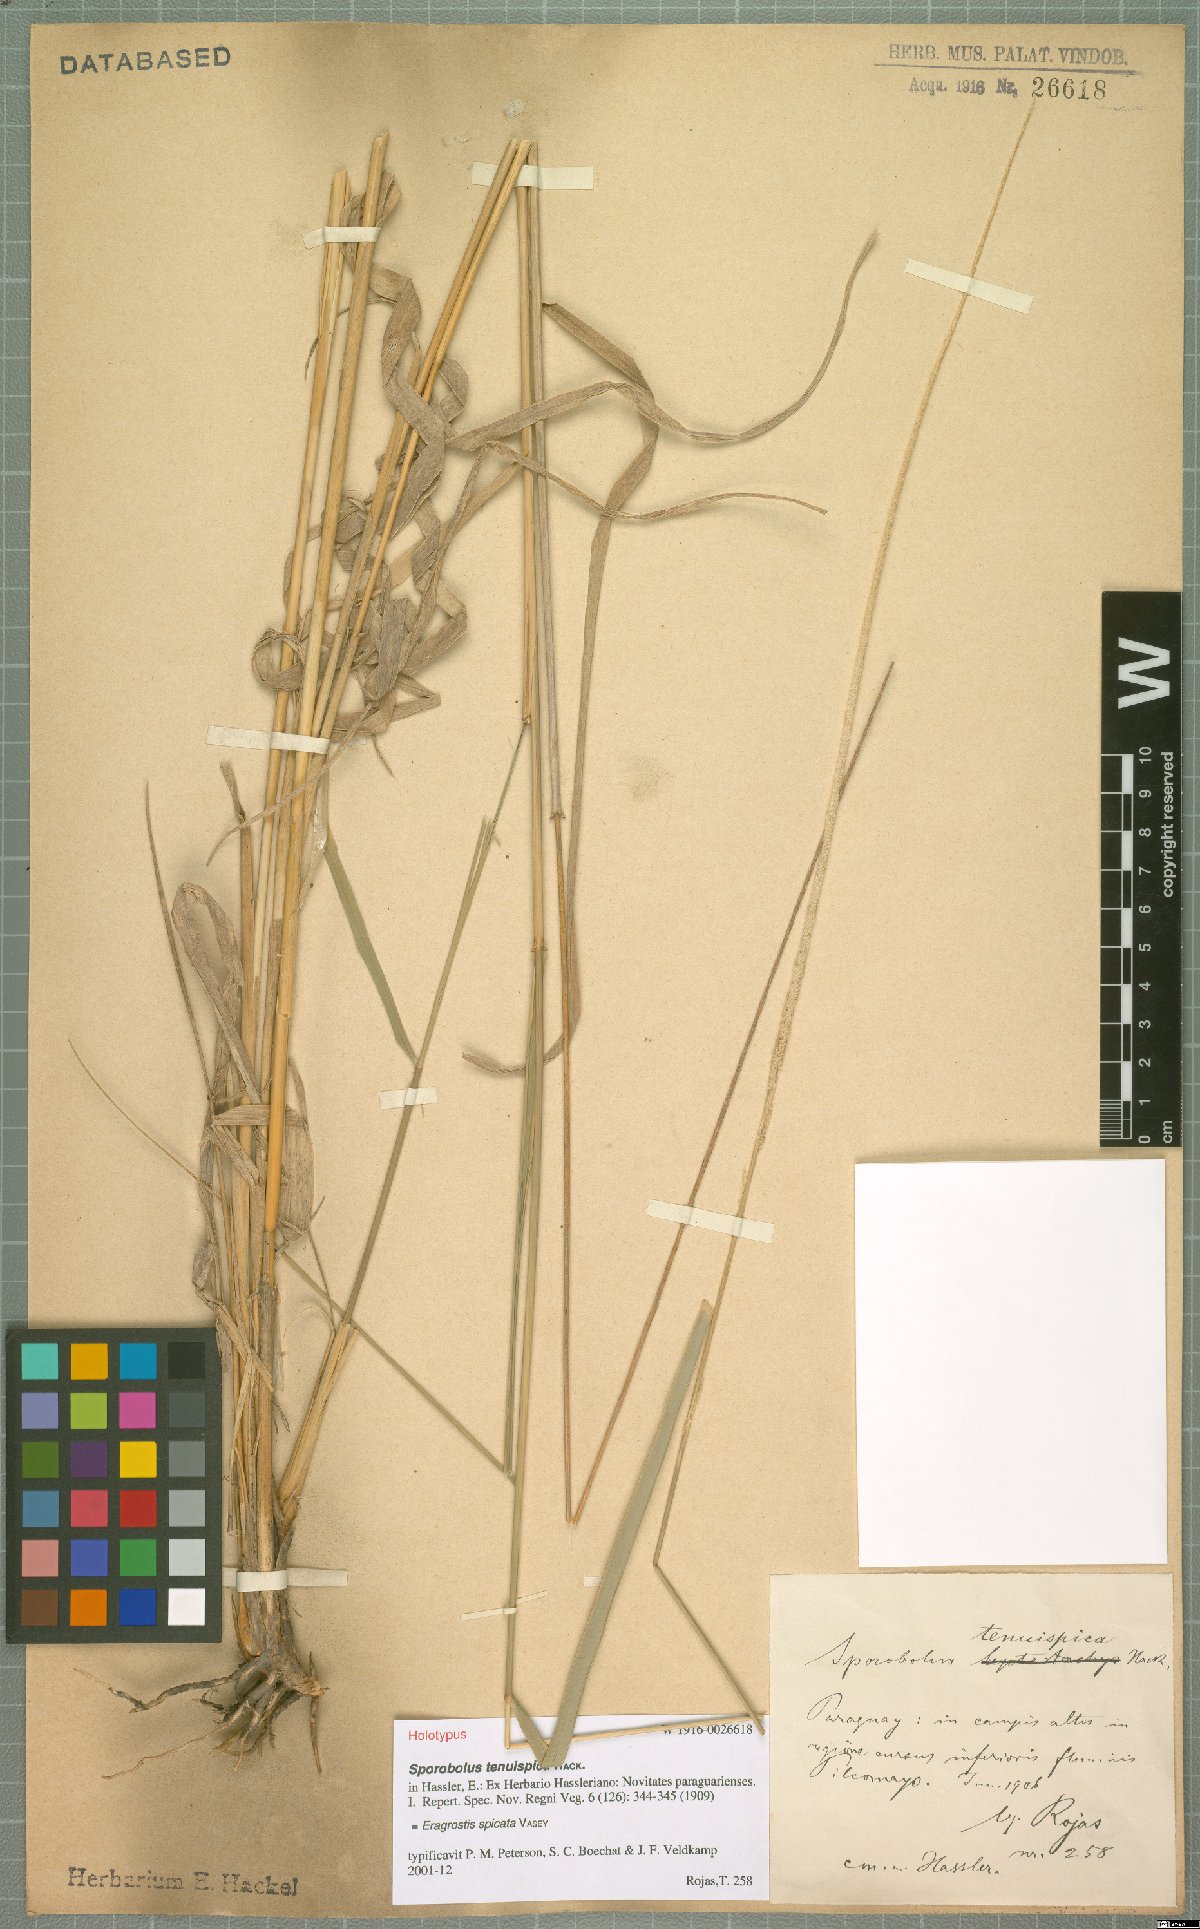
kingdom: Plantae
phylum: Tracheophyta
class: Liliopsida
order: Poales
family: Poaceae
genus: Eragrostis
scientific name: Eragrostis spicata
